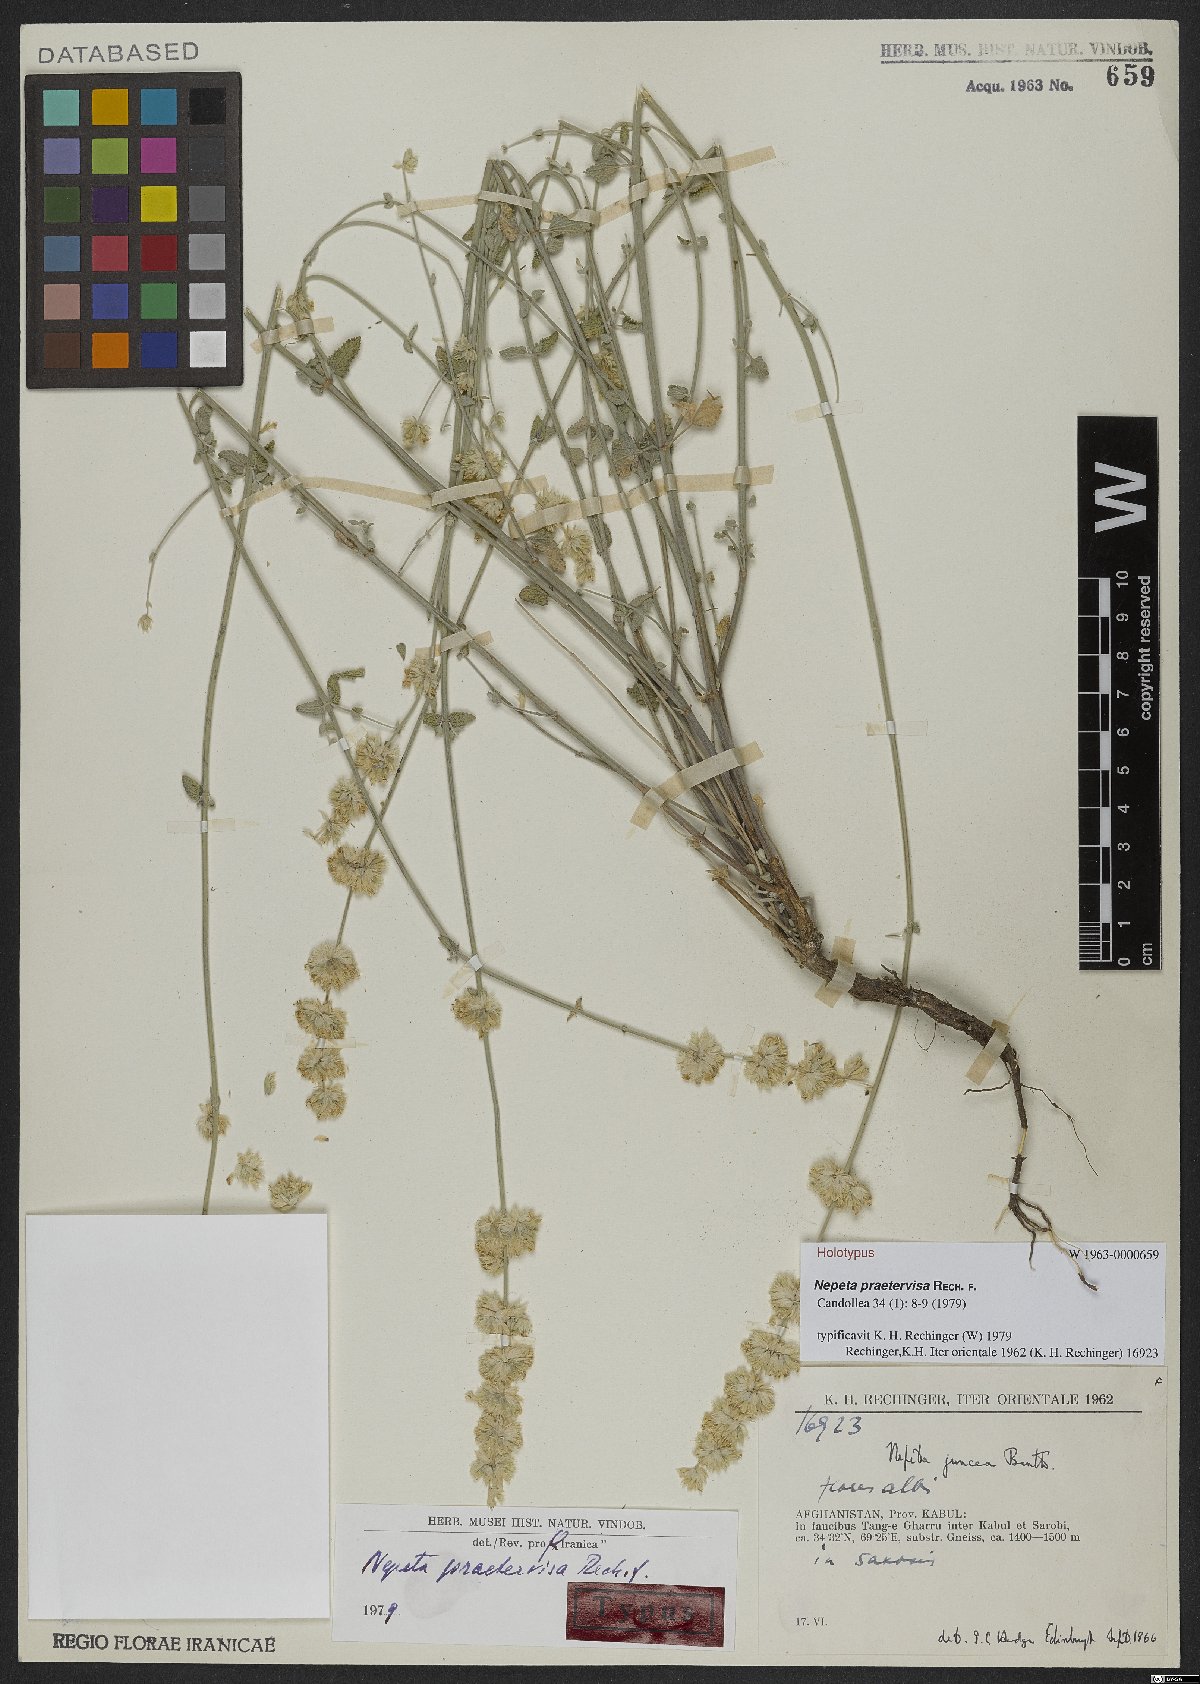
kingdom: Plantae
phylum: Tracheophyta
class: Magnoliopsida
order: Lamiales
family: Lamiaceae
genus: Nepeta
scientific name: Nepeta praetervisa
